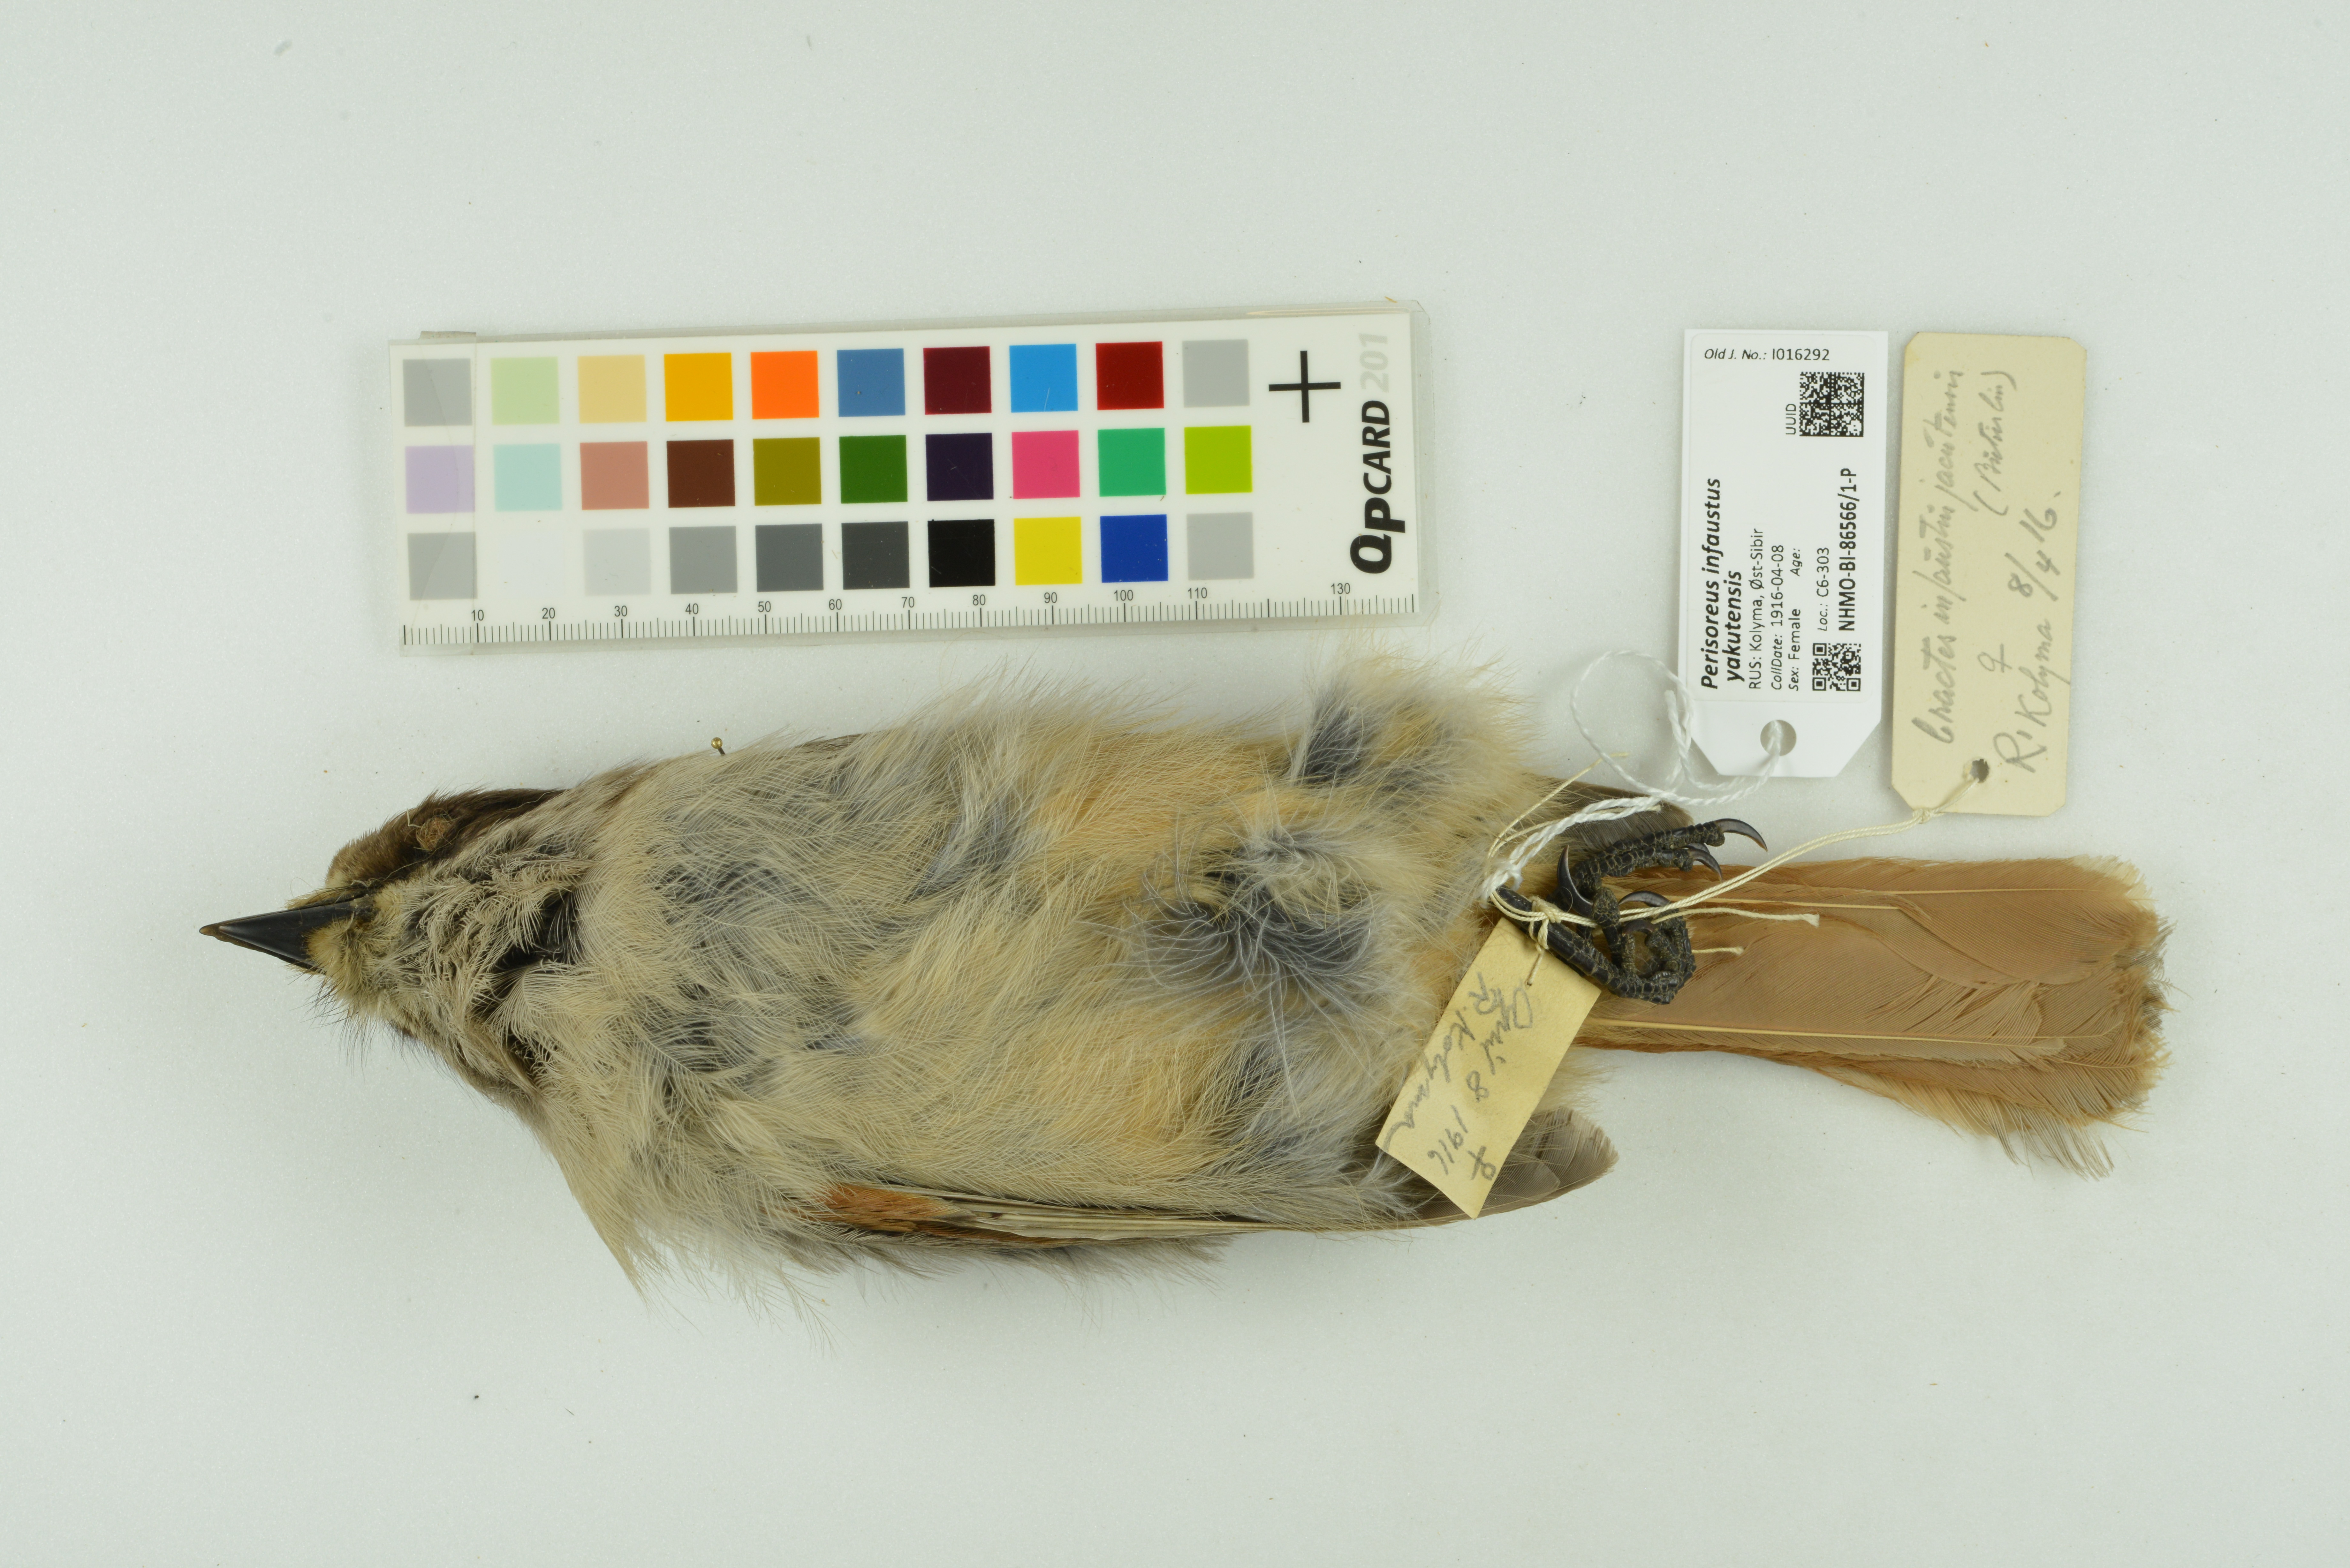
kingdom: Animalia
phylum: Chordata
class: Aves
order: Passeriformes
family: Corvidae
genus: Perisoreus
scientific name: Perisoreus infaustus
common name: Siberian jay
